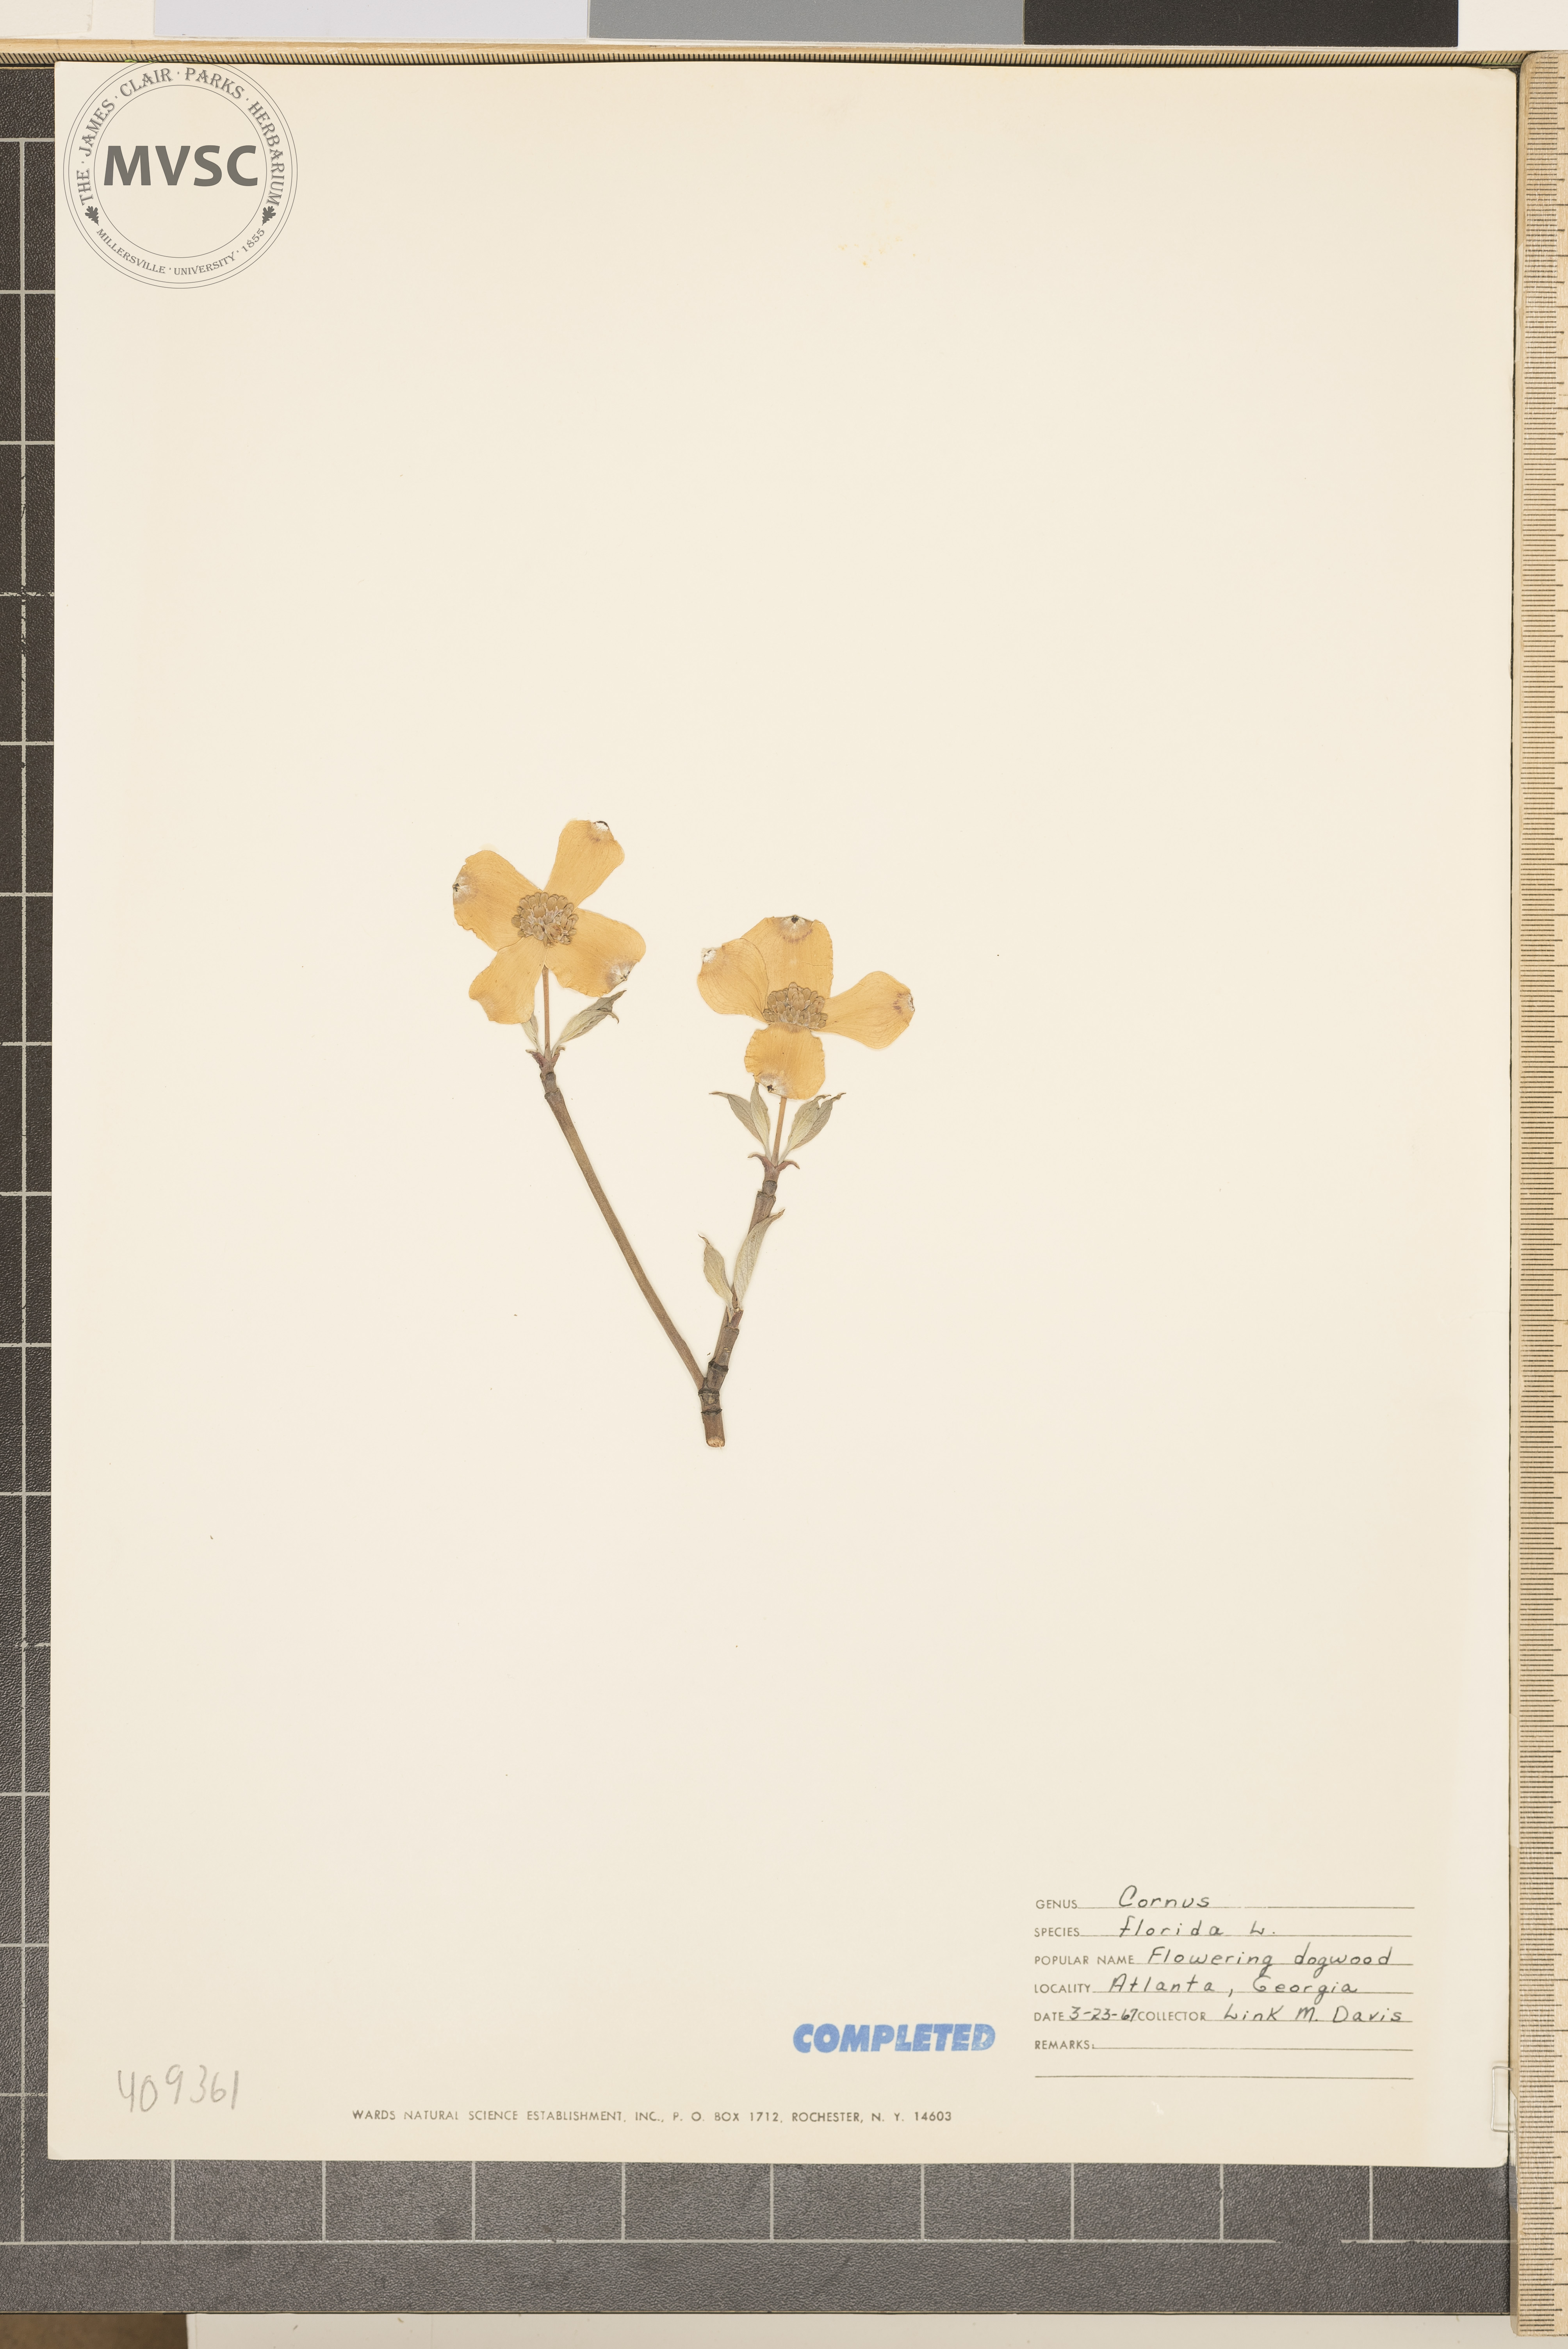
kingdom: Plantae
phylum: Tracheophyta
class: Magnoliopsida
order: Cornales
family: Cornaceae
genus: Cornus
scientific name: Cornus florida
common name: Flowering dogwood
